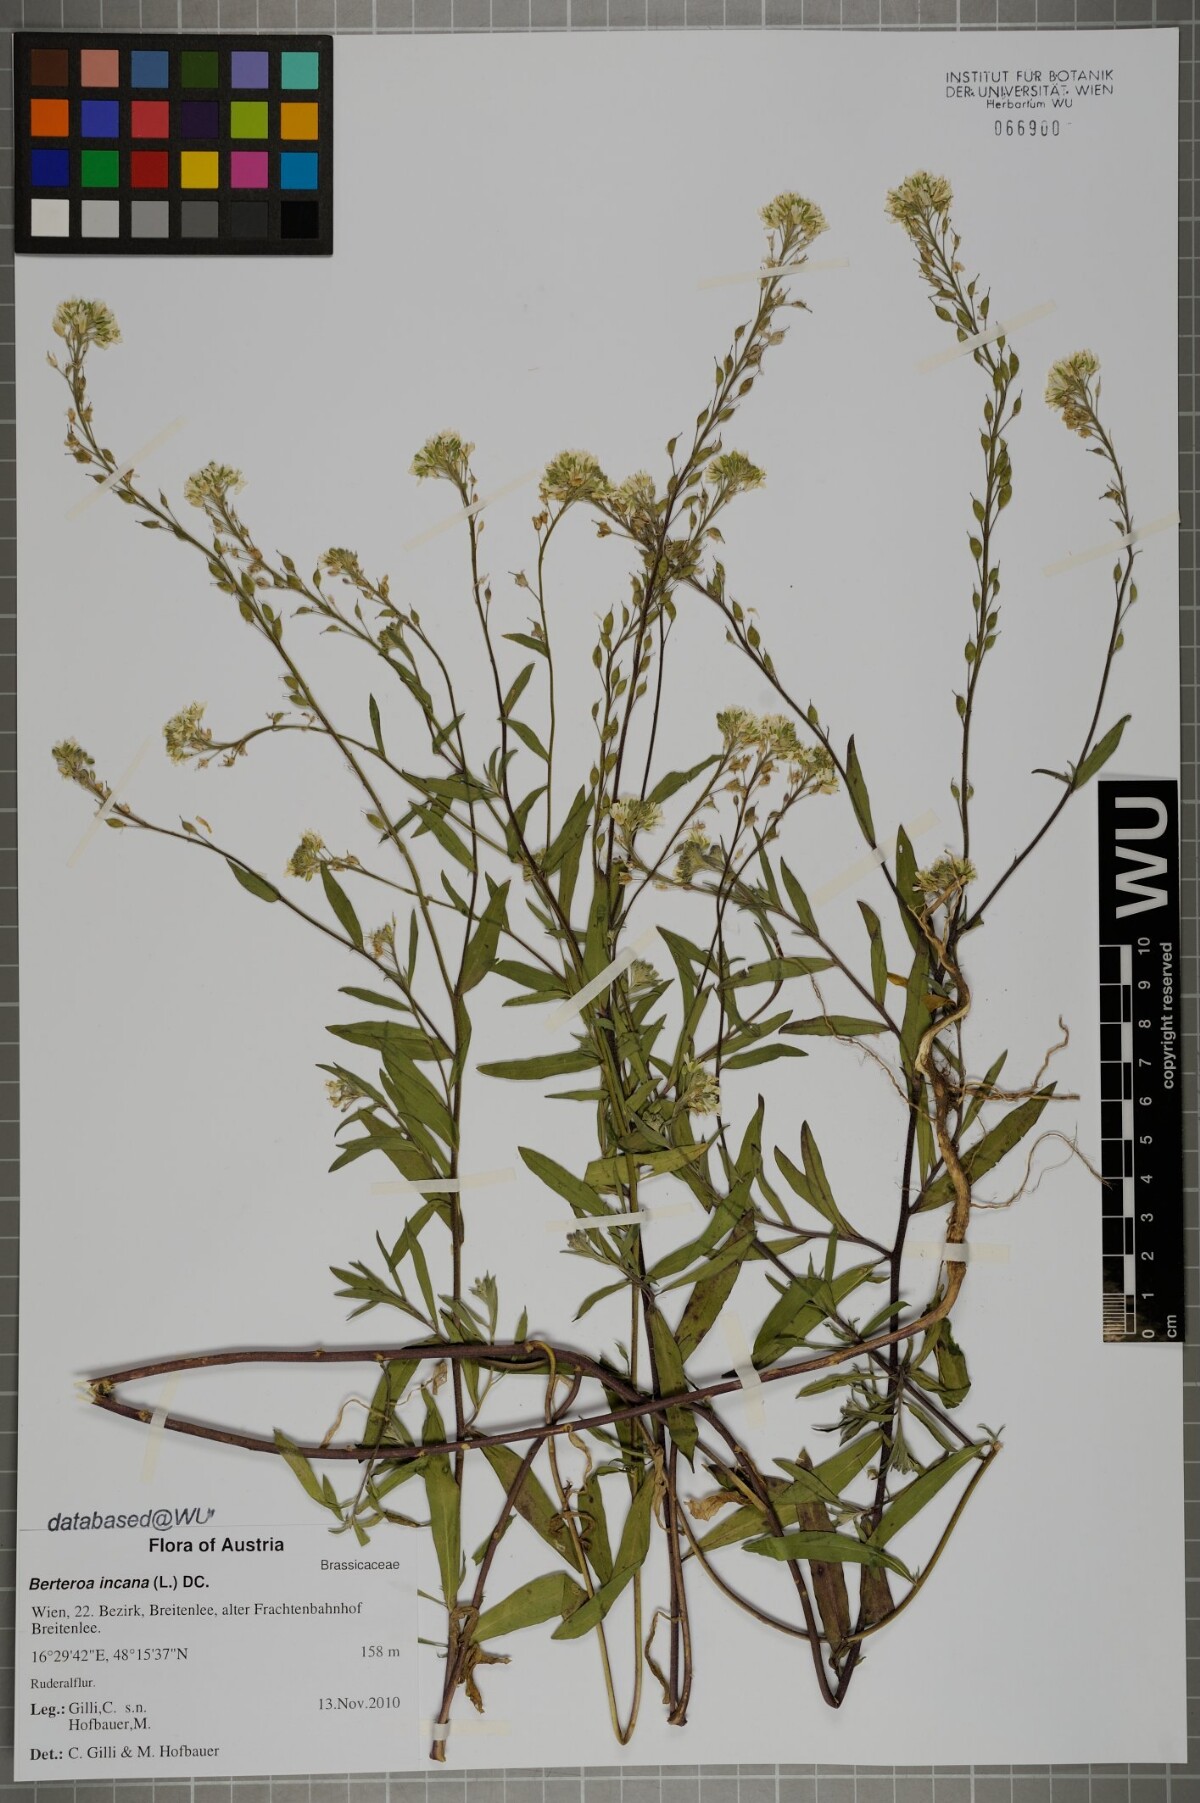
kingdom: Plantae
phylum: Tracheophyta
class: Magnoliopsida
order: Brassicales
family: Brassicaceae
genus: Berteroa
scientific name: Berteroa incana
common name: Hoary alison
